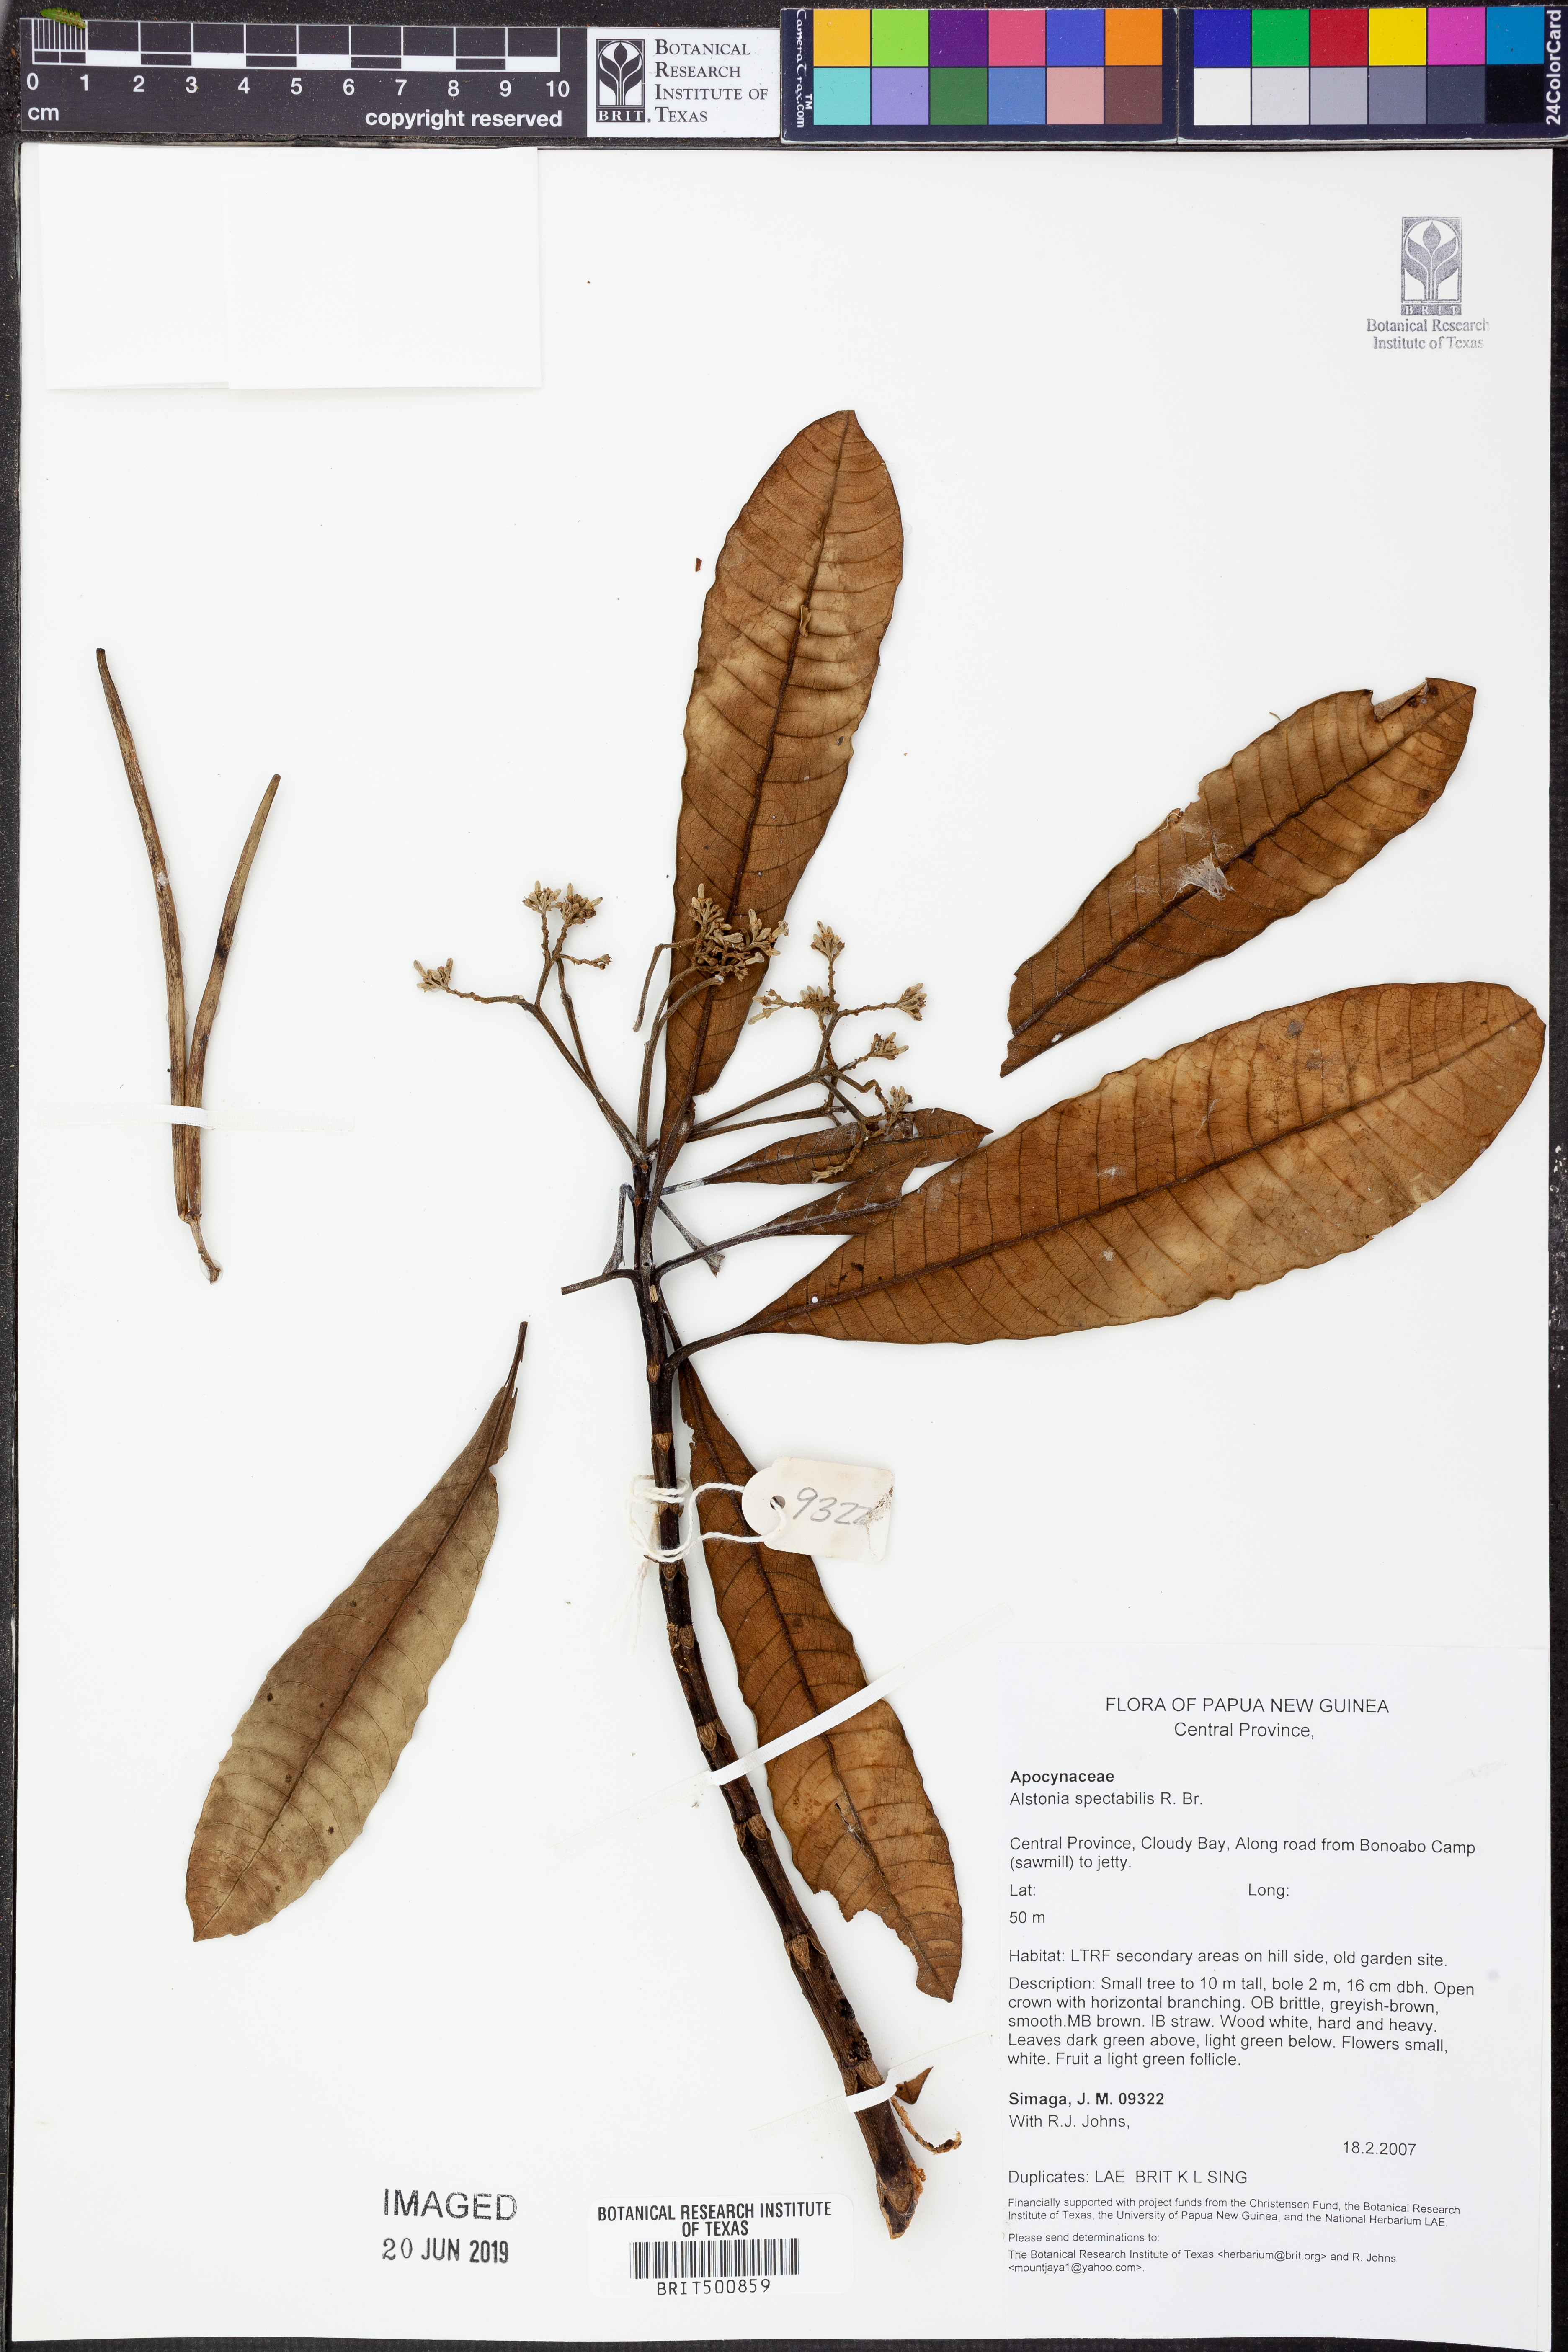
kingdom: Plantae
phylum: Tracheophyta
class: Magnoliopsida
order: Gentianales
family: Apocynaceae
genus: Alstonia
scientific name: Alstonia spectabilis
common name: Milky yellowwood
